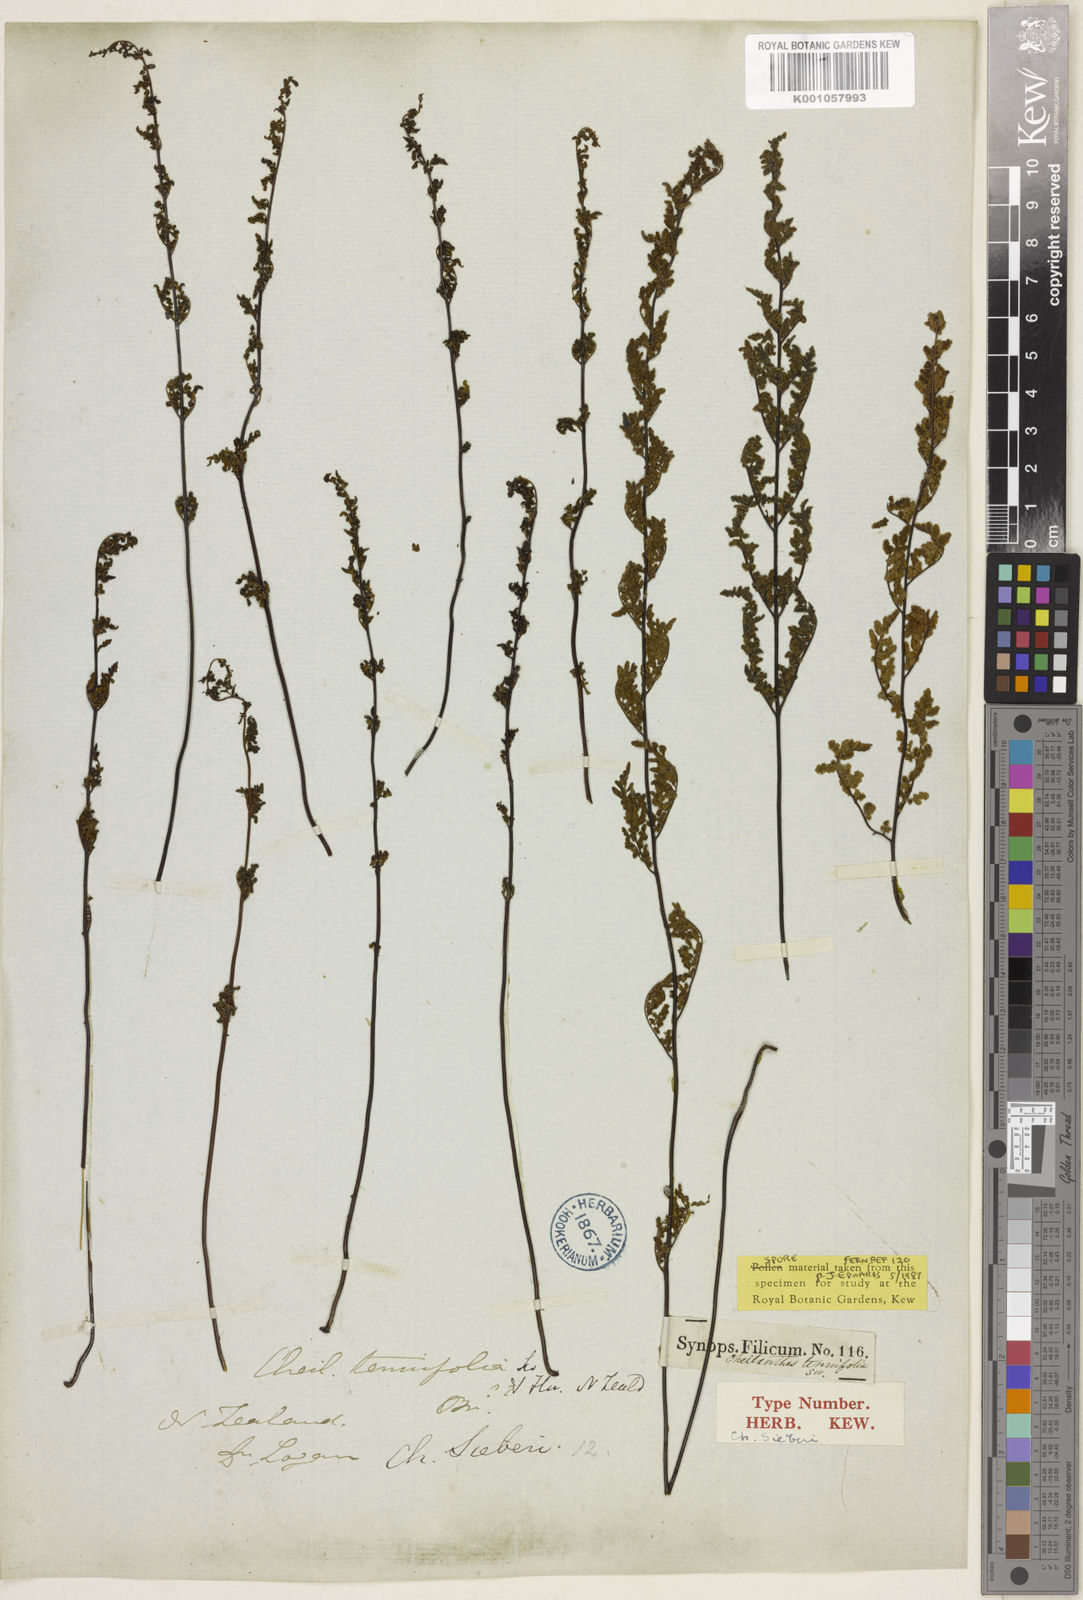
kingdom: Plantae
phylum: Tracheophyta
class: Polypodiopsida
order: Polypodiales
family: Pteridaceae
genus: Cheilanthes
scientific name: Cheilanthes sieberi
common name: Mulga fern
